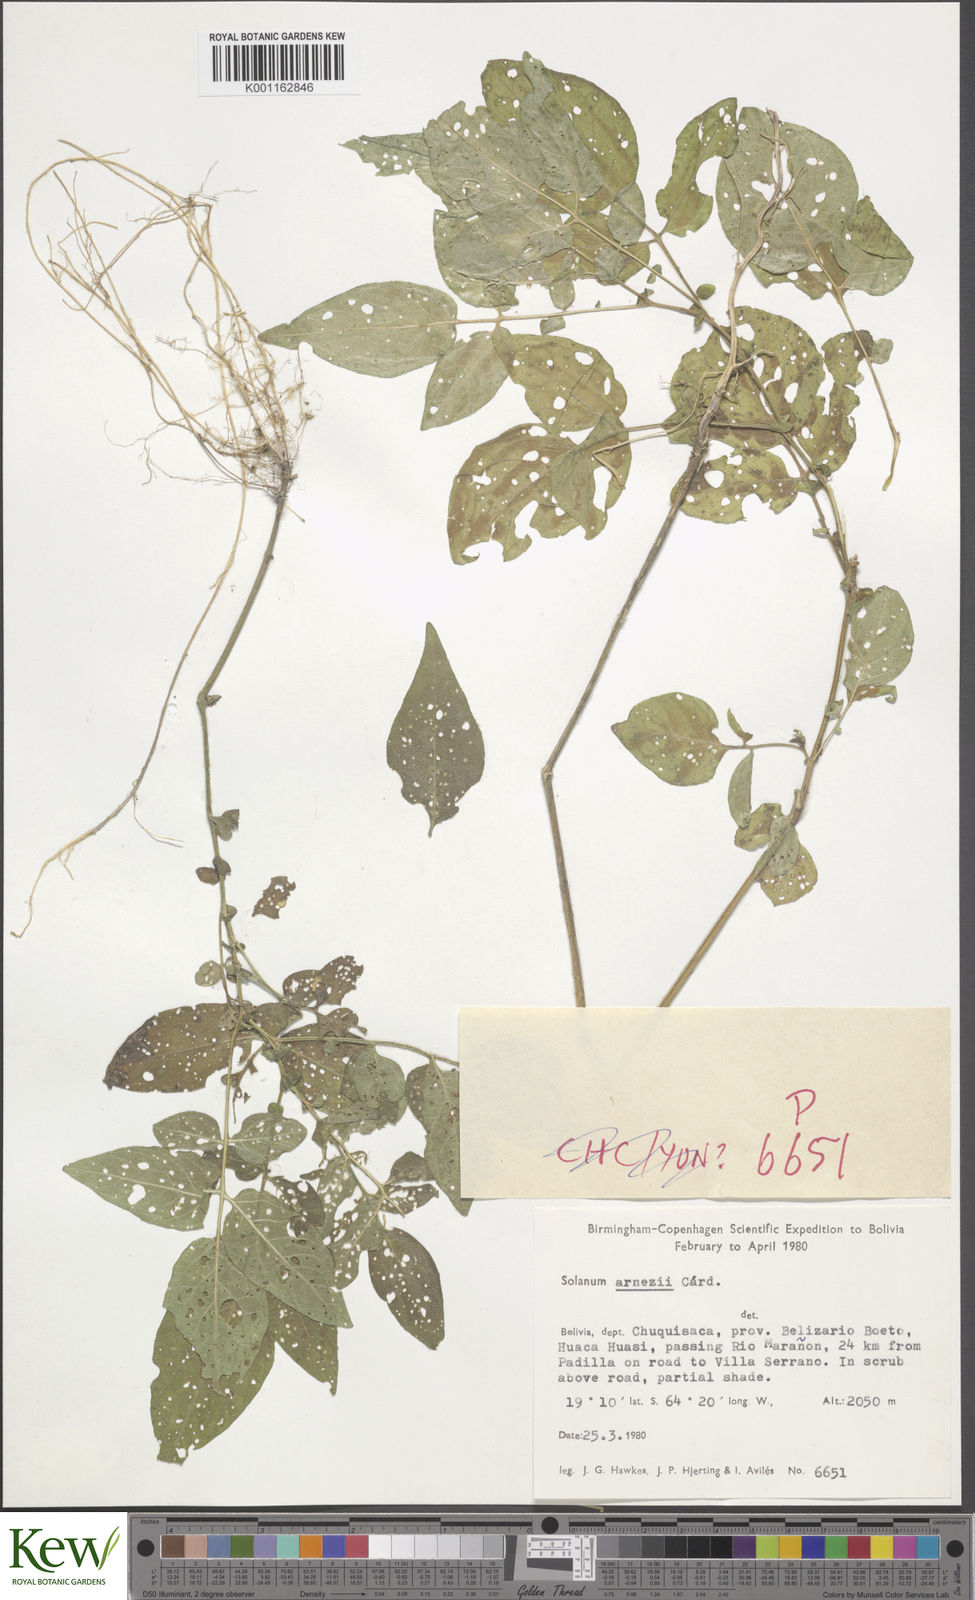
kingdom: Plantae
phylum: Tracheophyta
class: Magnoliopsida
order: Solanales
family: Solanaceae
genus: Solanum
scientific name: Solanum
